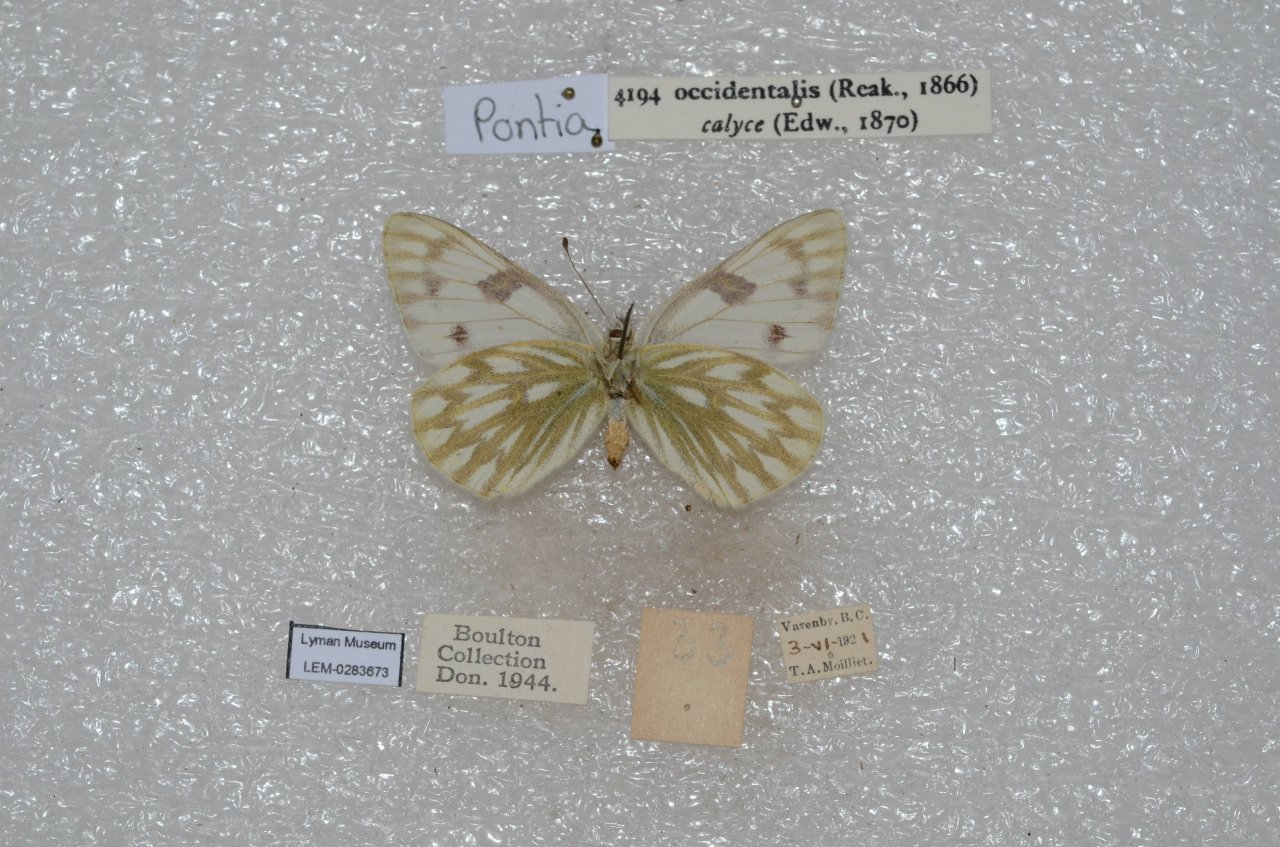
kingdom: Animalia
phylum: Arthropoda
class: Insecta
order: Lepidoptera
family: Pieridae
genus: Pontia
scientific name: Pontia occidentalis
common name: Western White
